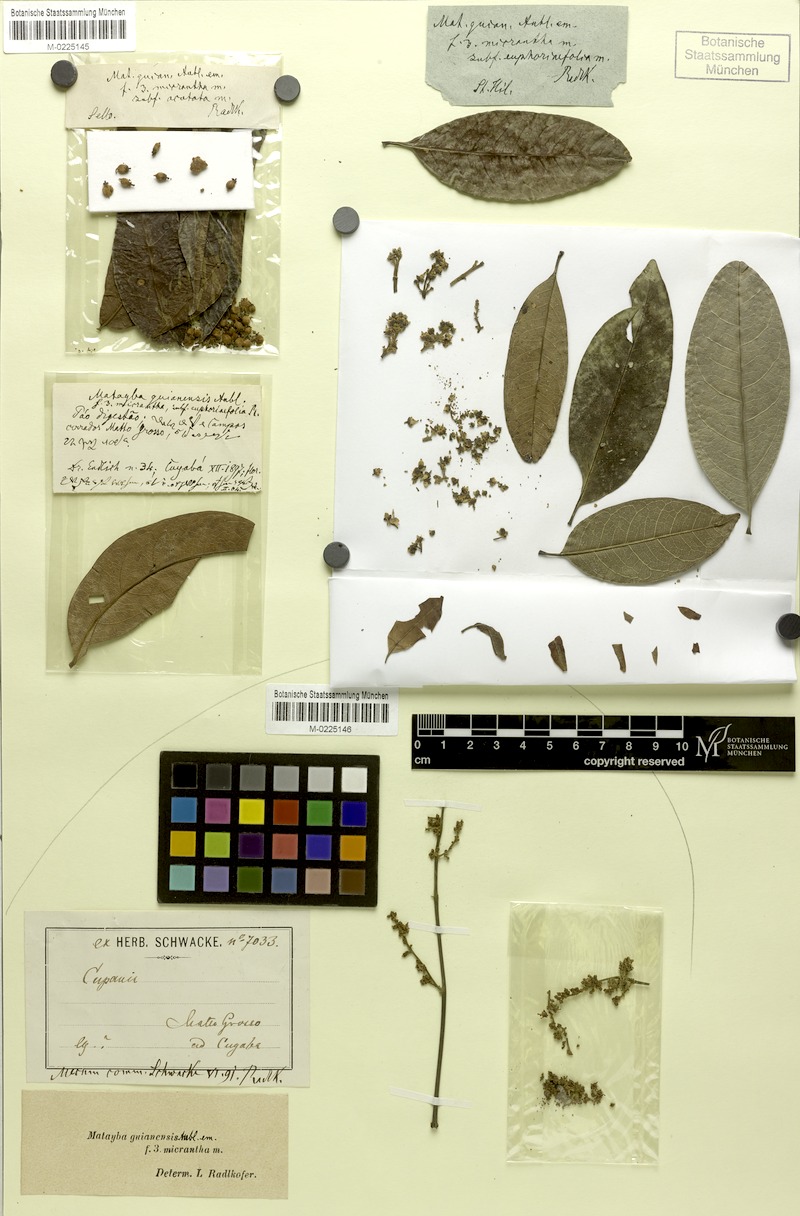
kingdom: Plantae
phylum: Tracheophyta
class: Magnoliopsida
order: Sapindales
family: Sapindaceae
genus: Matayba
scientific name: Matayba guianensis
